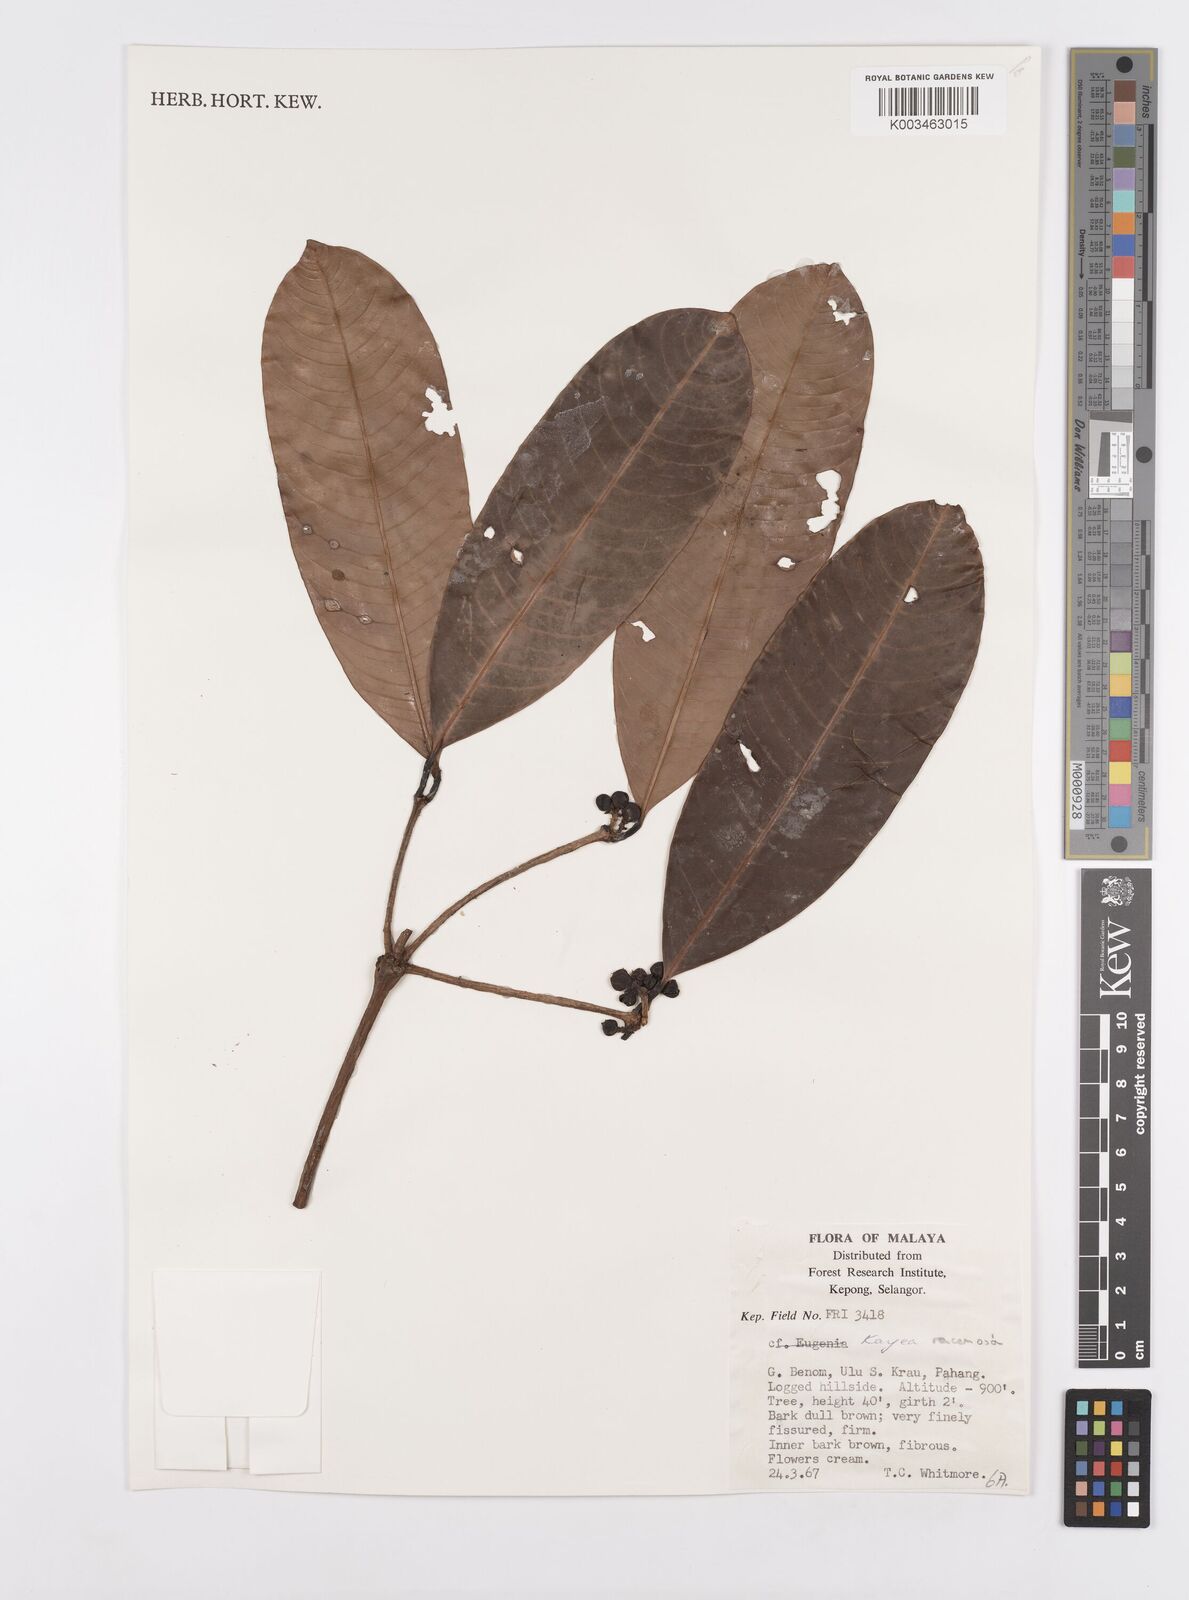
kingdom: Plantae
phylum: Tracheophyta
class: Magnoliopsida
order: Malpighiales
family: Calophyllaceae
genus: Kayea
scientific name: Kayea racemosa
